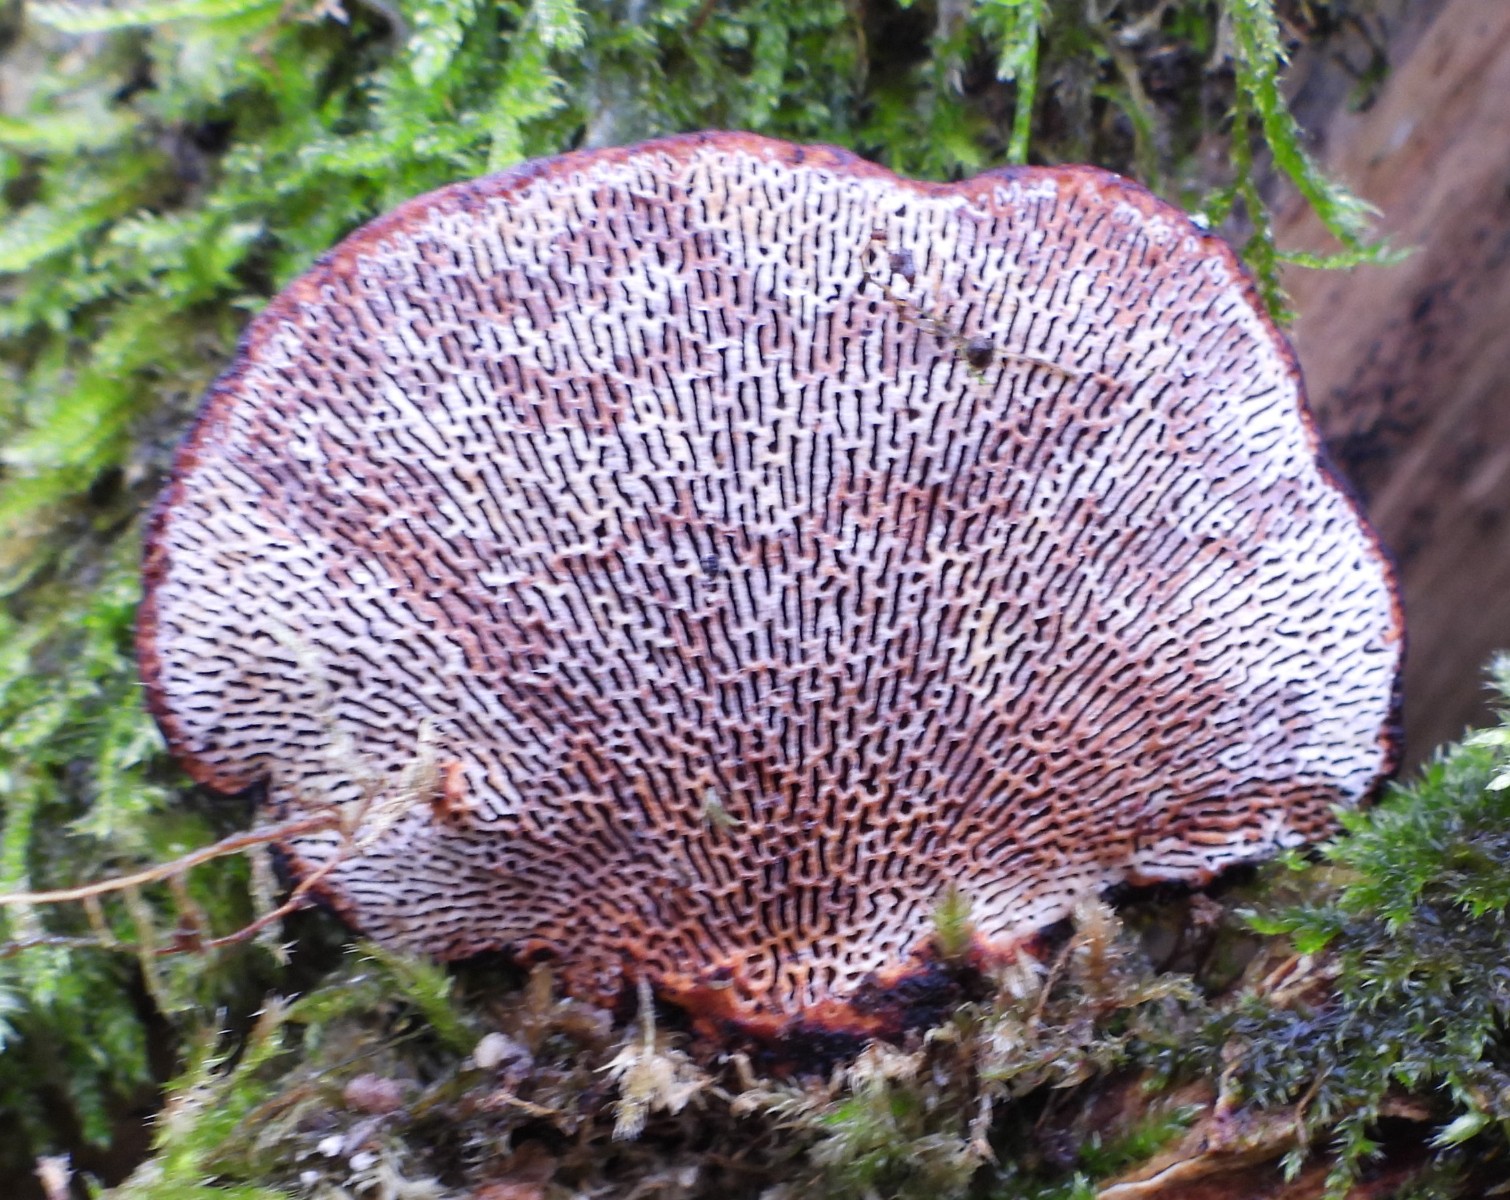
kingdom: Fungi
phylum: Basidiomycota
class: Agaricomycetes
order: Polyporales
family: Polyporaceae
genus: Daedaleopsis
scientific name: Daedaleopsis confragosa
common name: rødmende læderporesvamp
